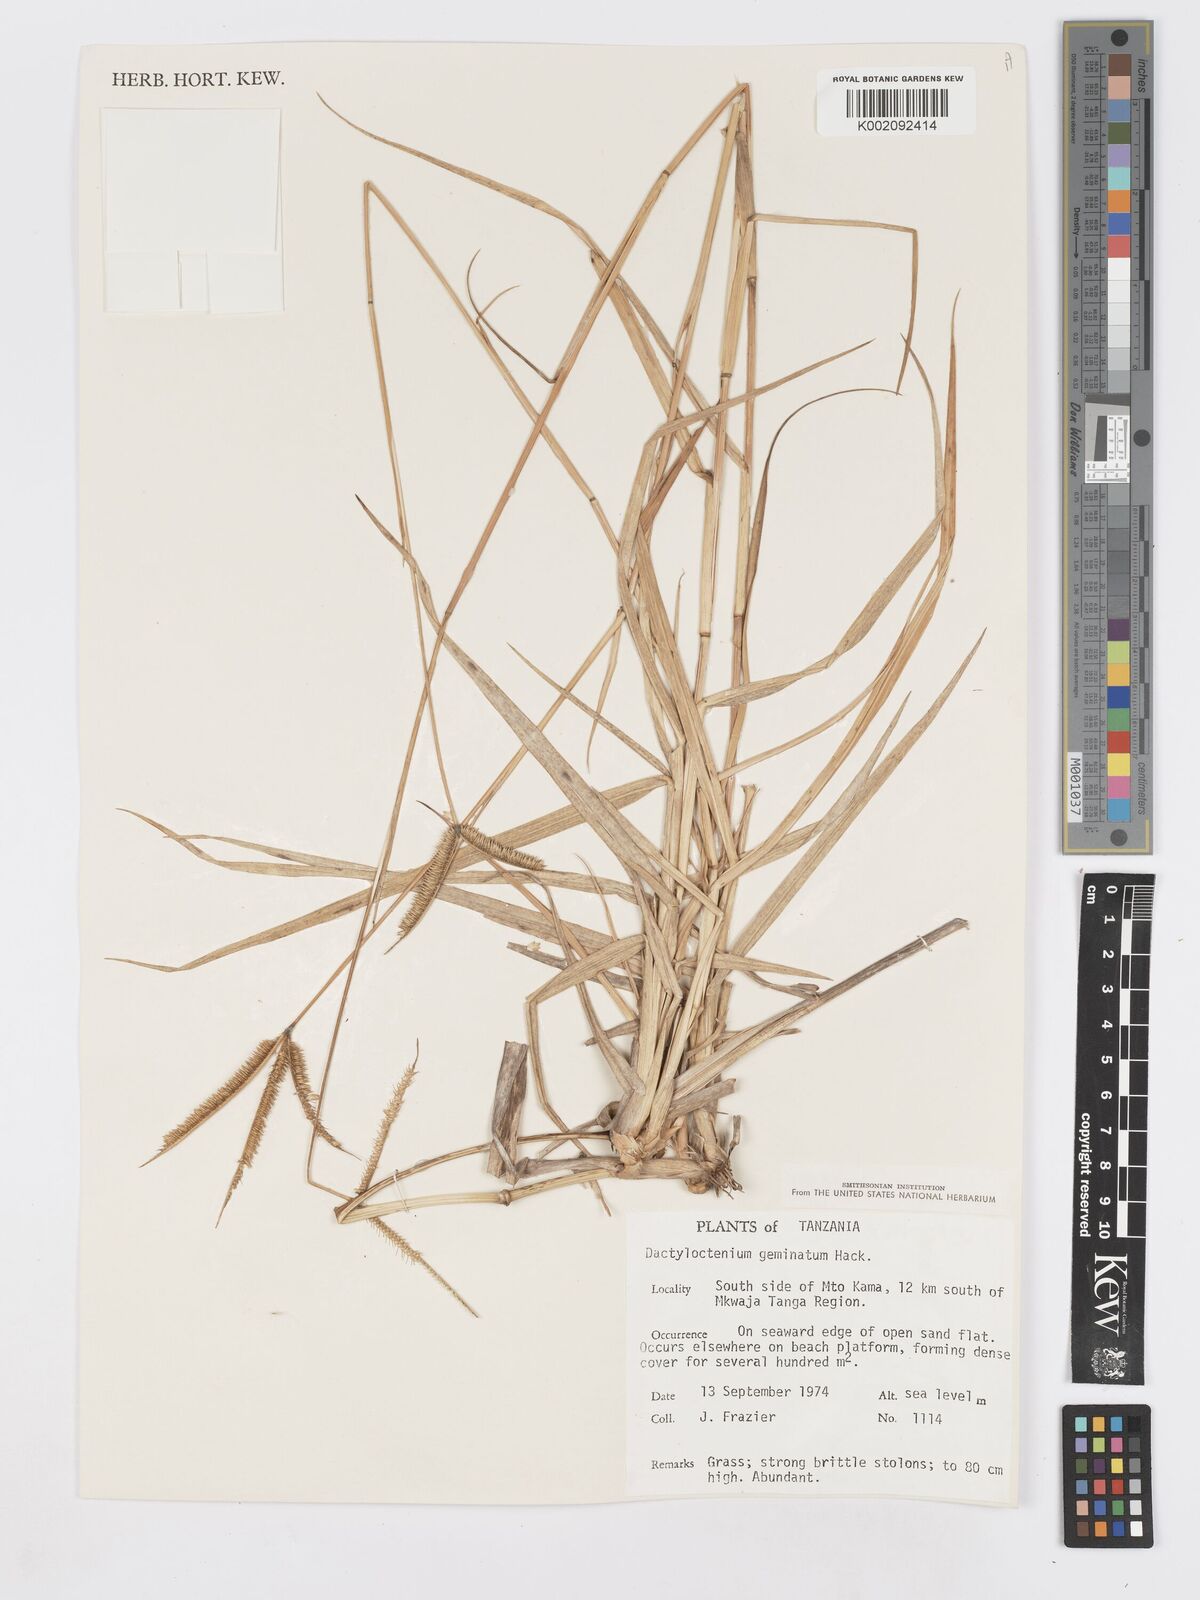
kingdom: Plantae
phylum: Tracheophyta
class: Liliopsida
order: Poales
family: Poaceae
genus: Dactyloctenium
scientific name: Dactyloctenium geminatum
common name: Crowsfoot grass
